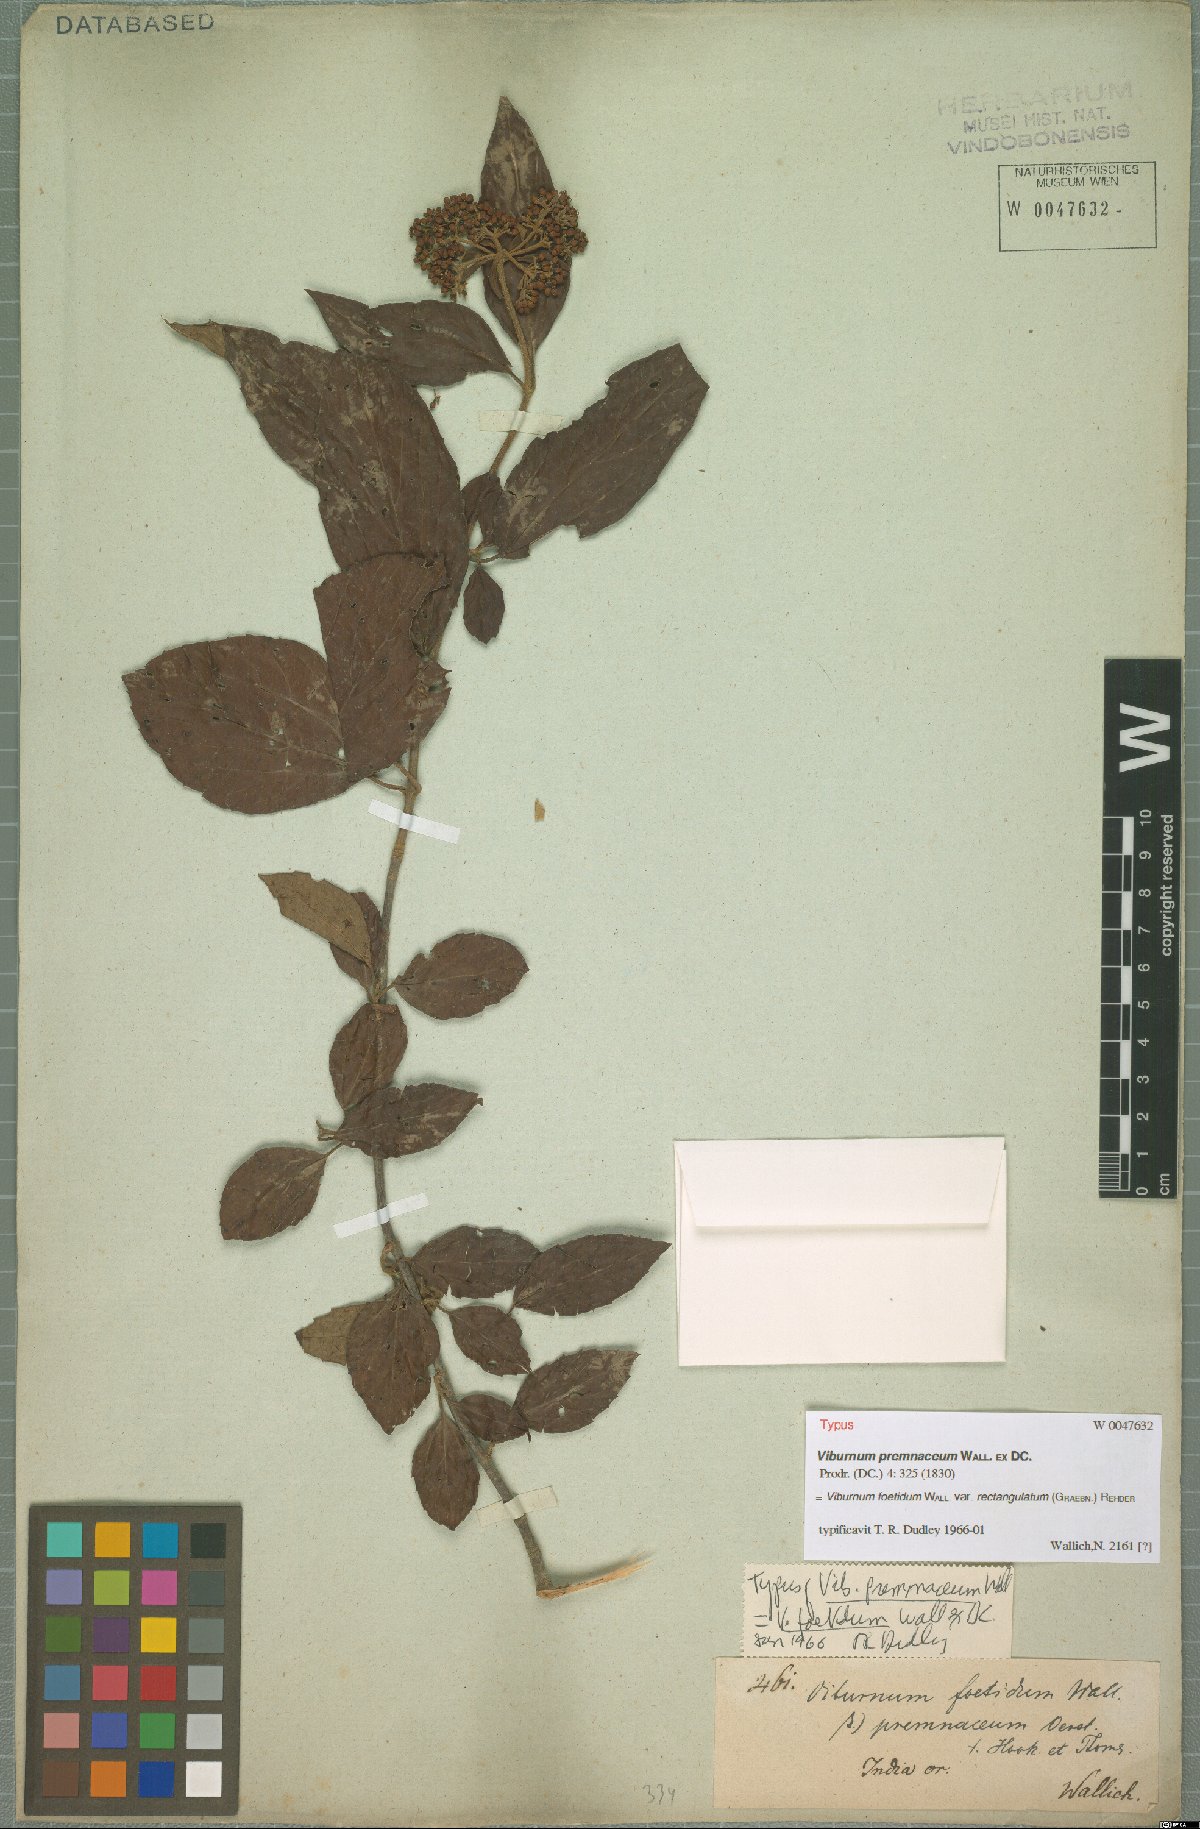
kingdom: Plantae
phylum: Tracheophyta
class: Magnoliopsida
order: Dipsacales
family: Viburnaceae
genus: Viburnum
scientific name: Viburnum foetidum
